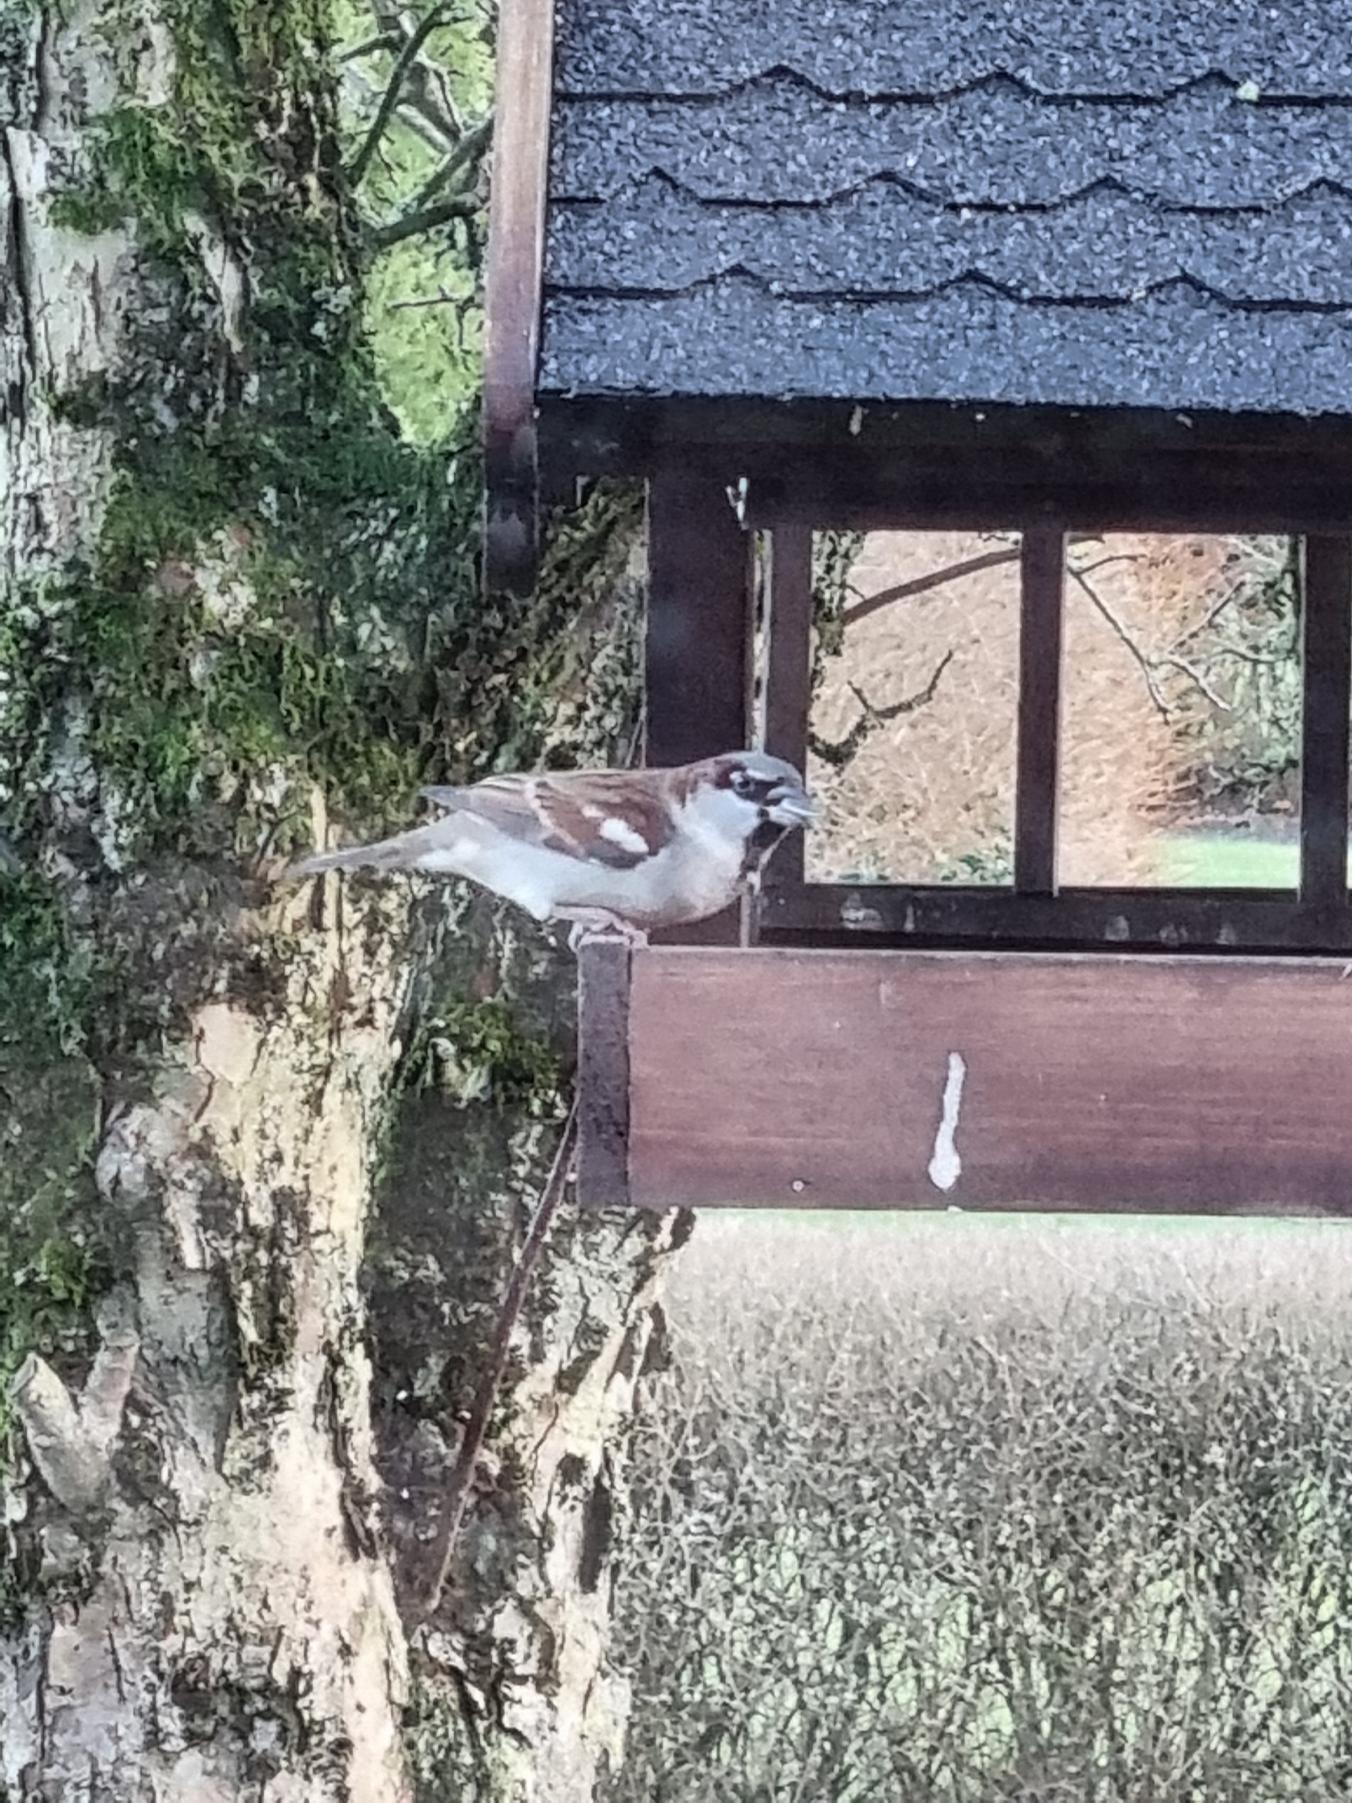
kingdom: Animalia
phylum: Chordata
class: Aves
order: Passeriformes
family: Passeridae
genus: Passer
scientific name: Passer domesticus
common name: Gråspurv
